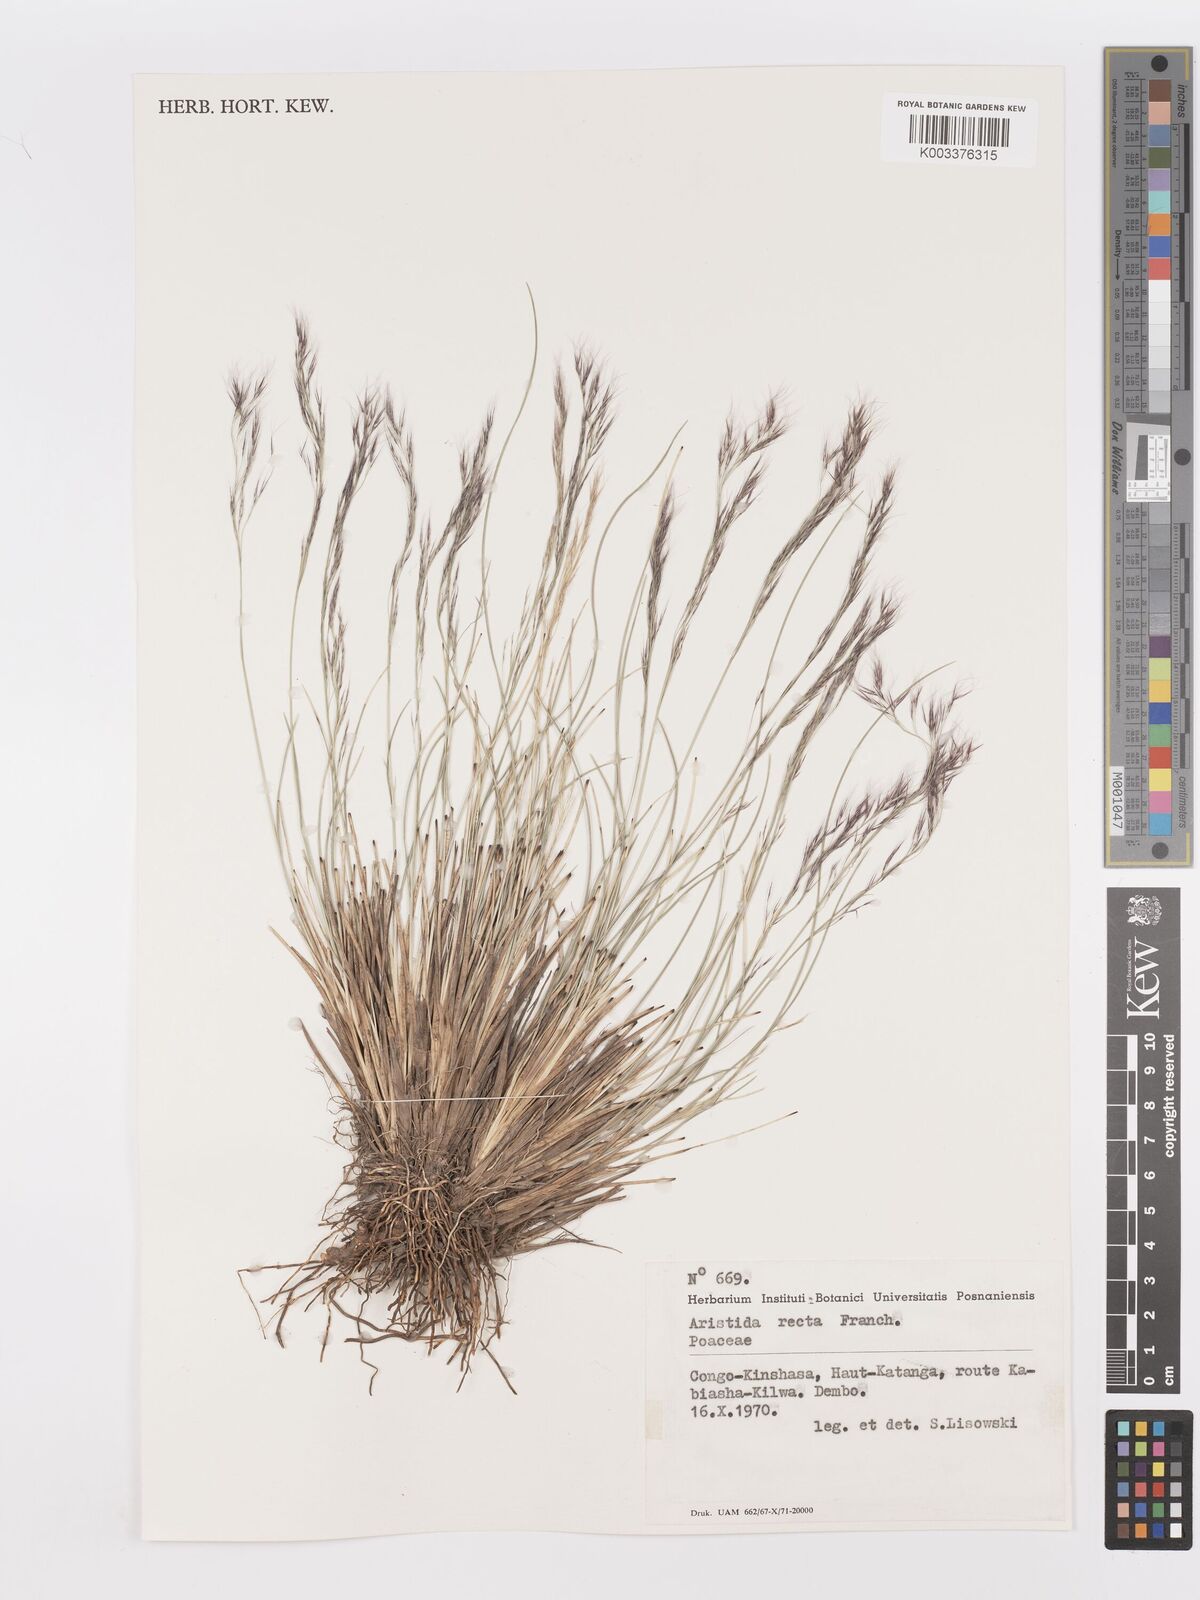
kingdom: Plantae
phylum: Tracheophyta
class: Liliopsida
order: Poales
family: Poaceae
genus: Aristida
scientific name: Aristida recta
